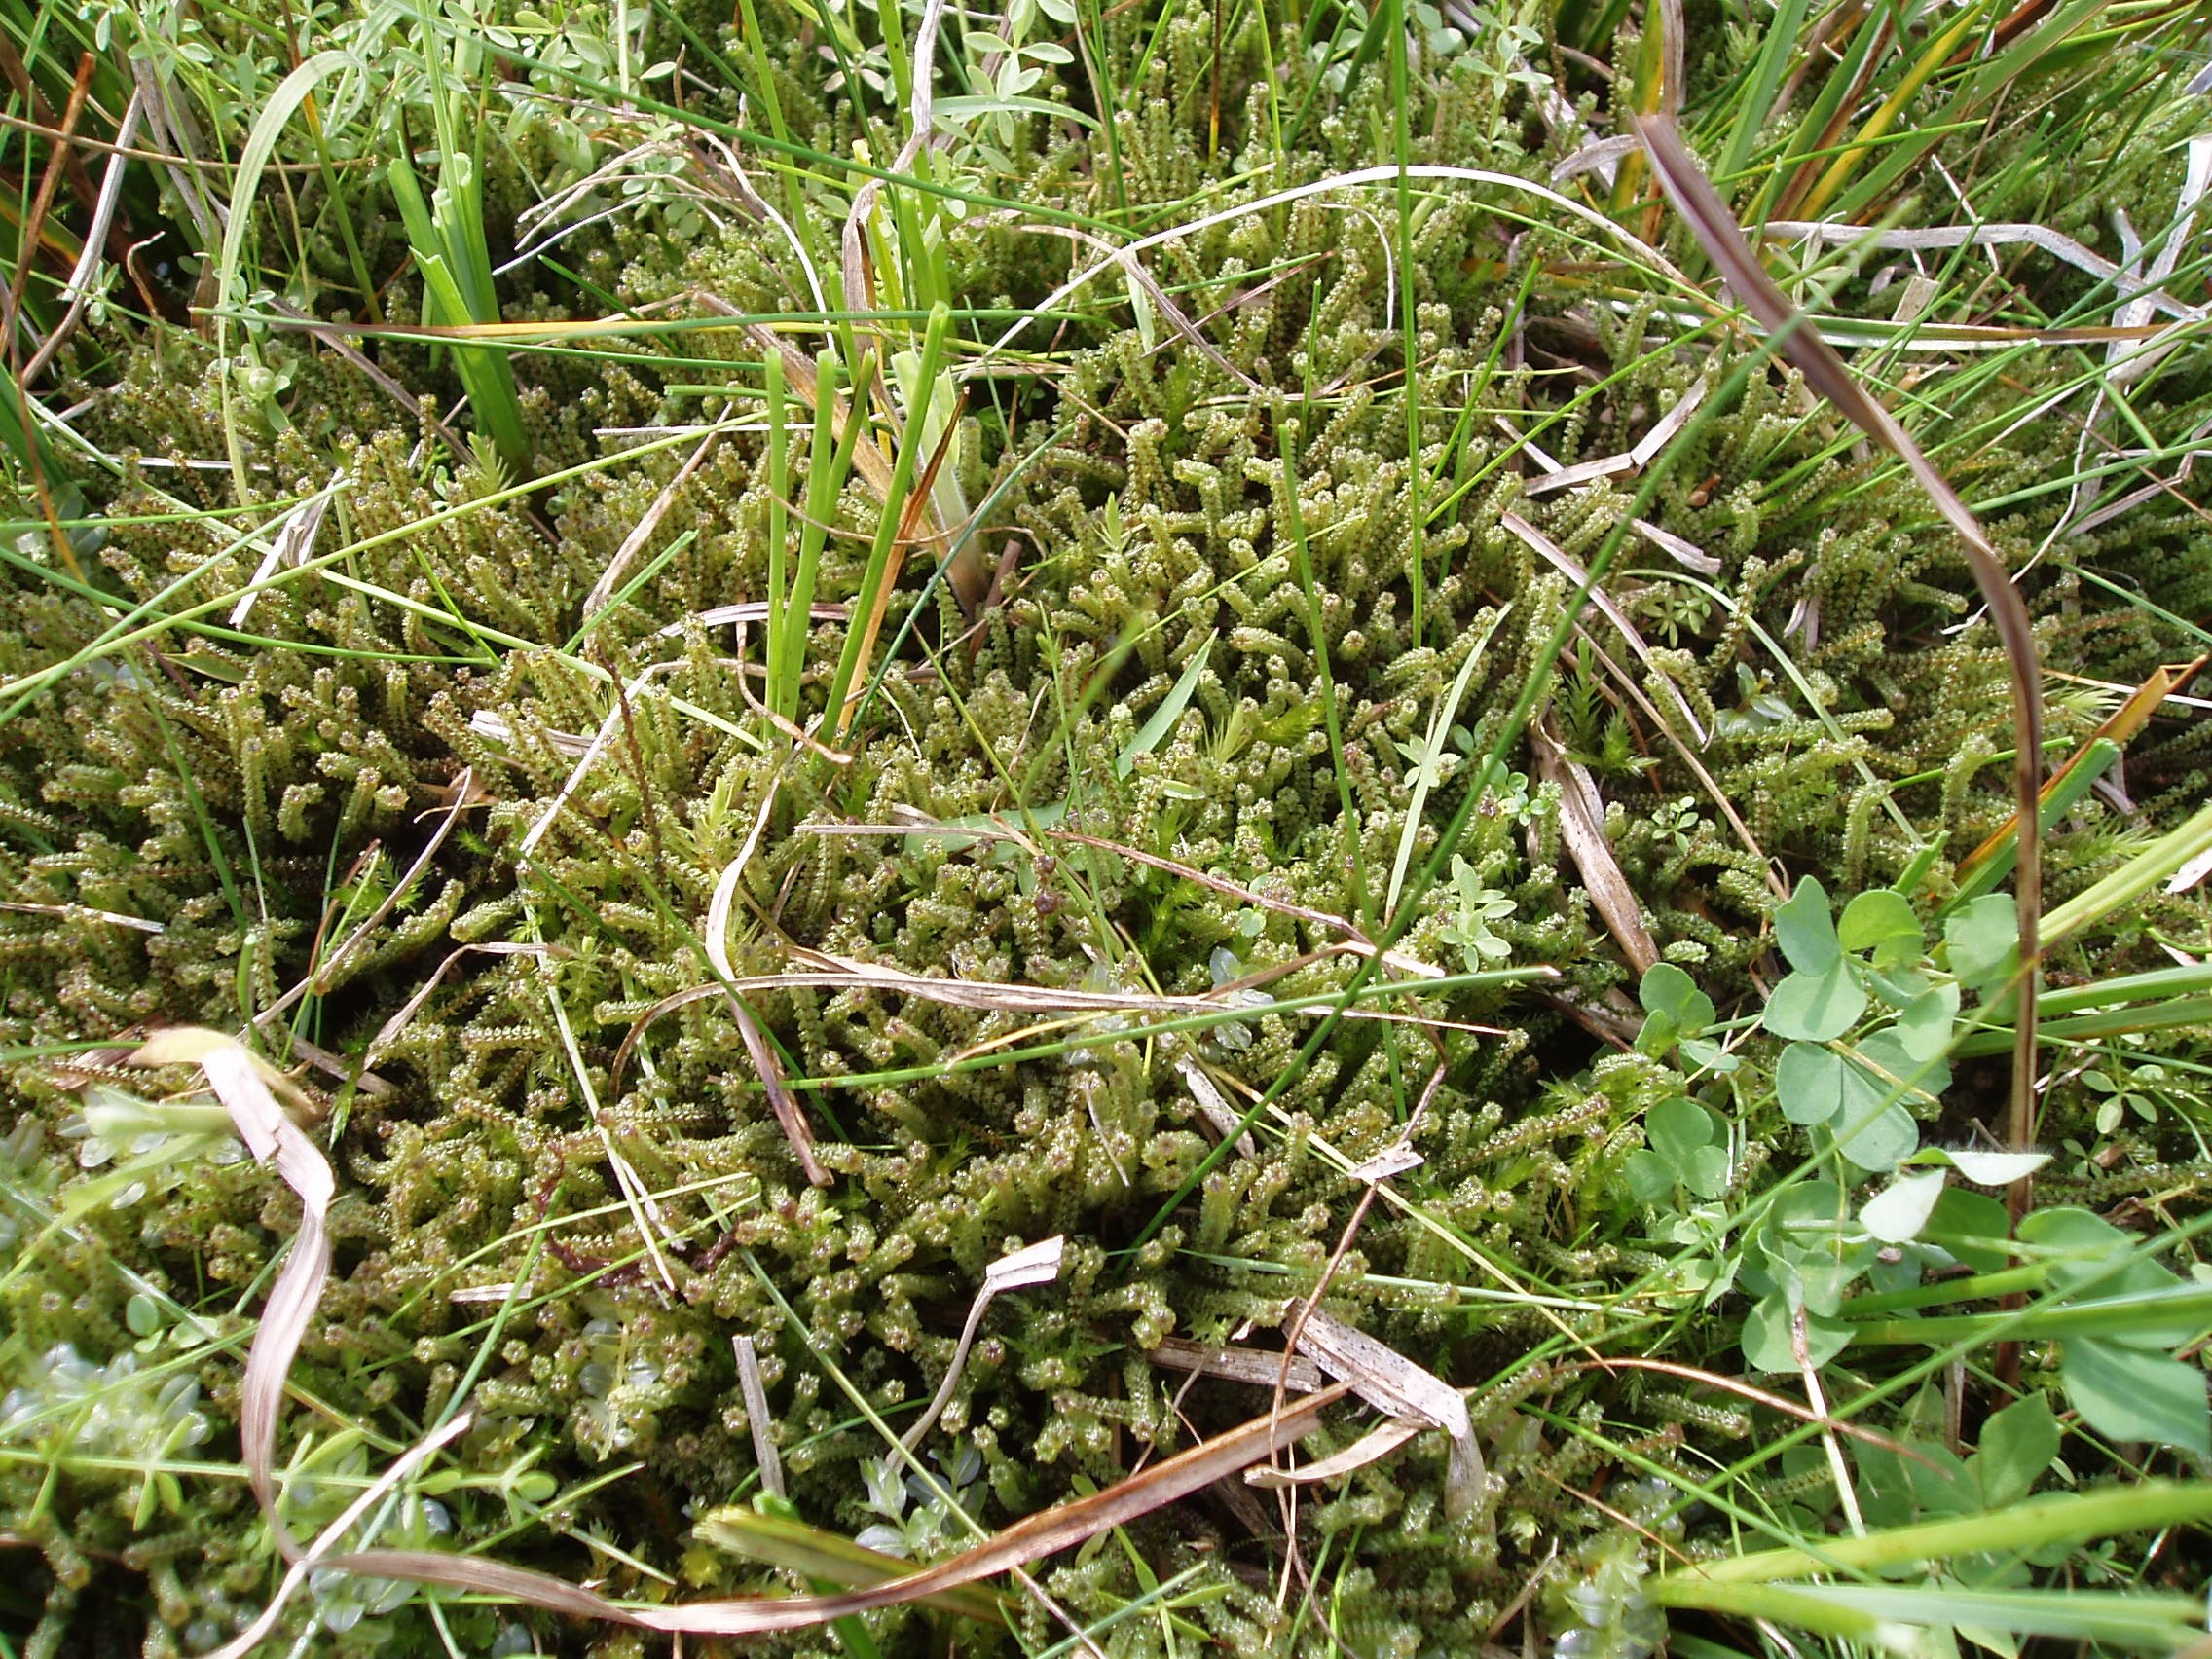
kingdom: Plantae
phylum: Bryophyta
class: Bryopsida
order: Splachnales
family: Meesiaceae
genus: Paludella
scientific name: Paludella squarrosa
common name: Almindelig piberensermos
